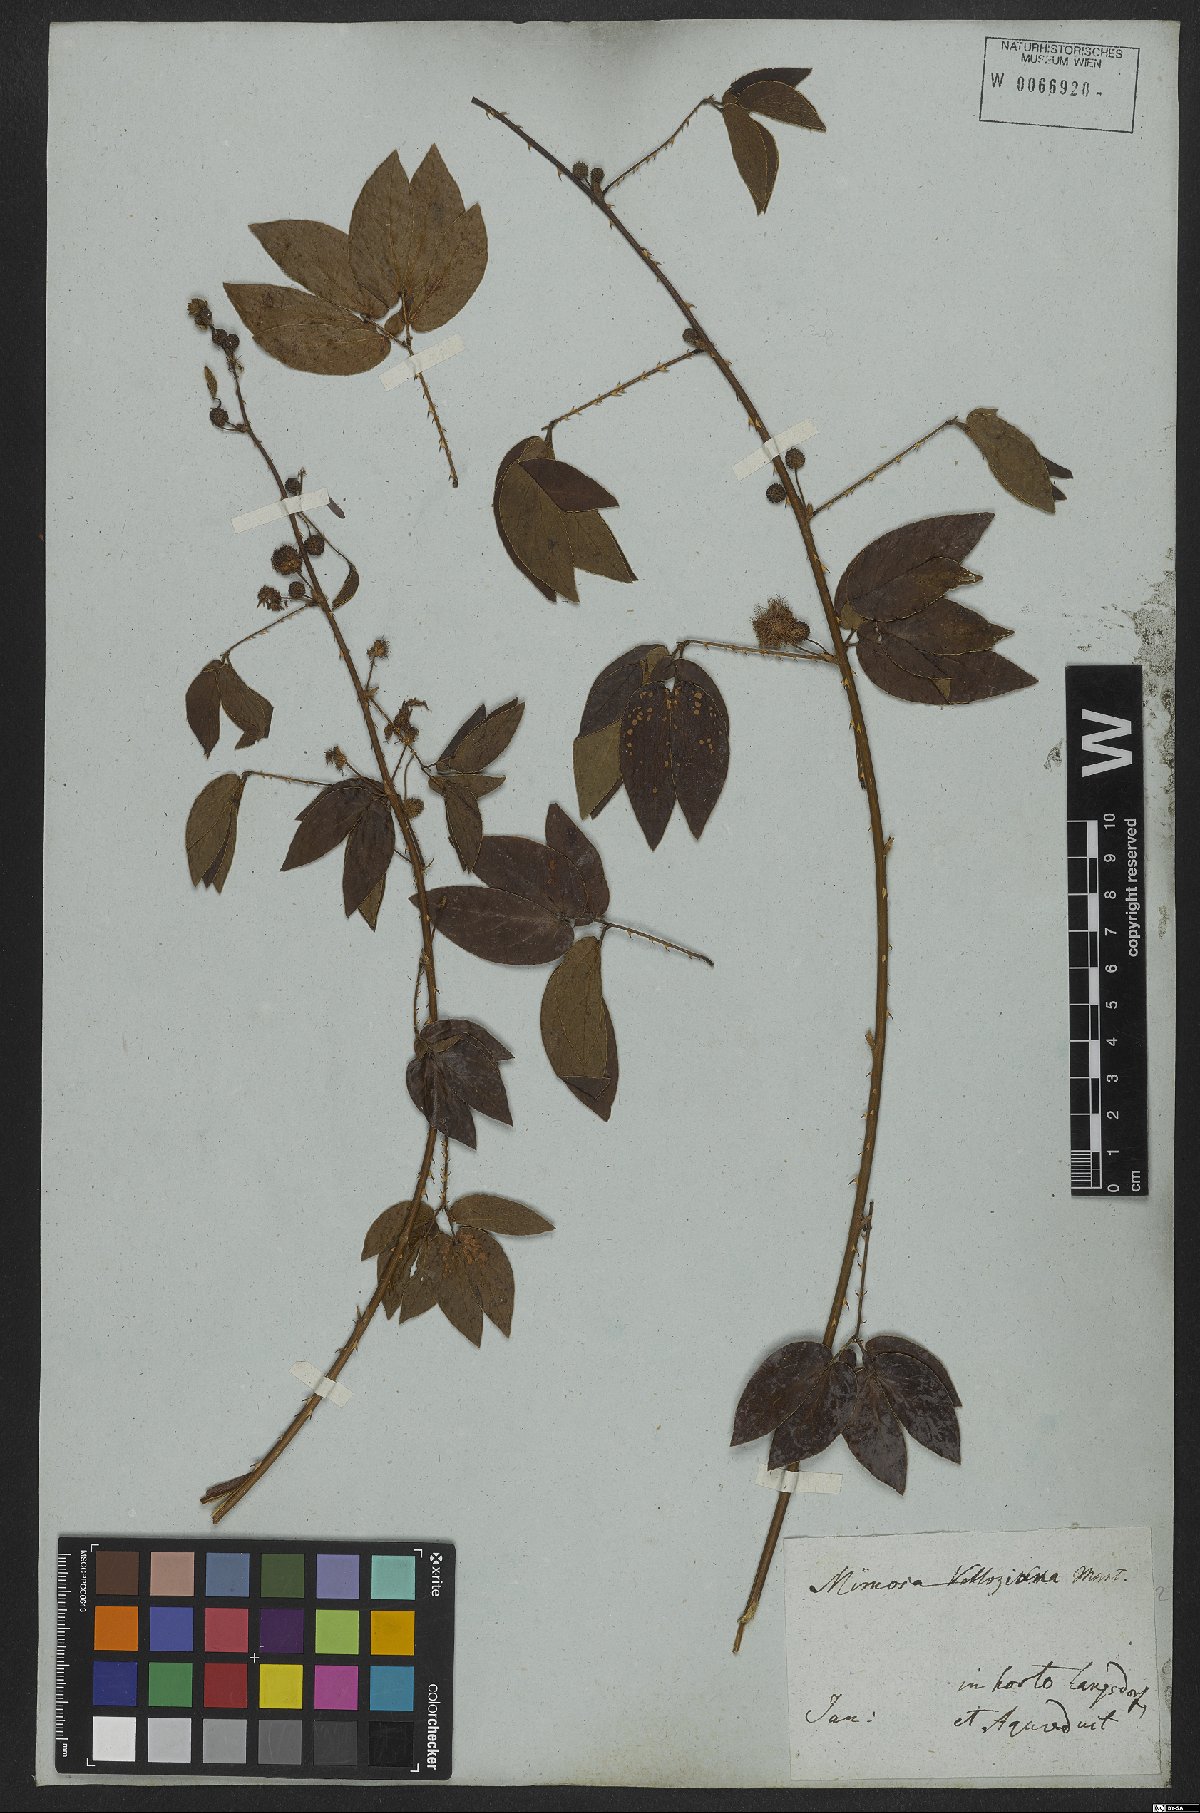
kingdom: Plantae
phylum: Tracheophyta
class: Magnoliopsida
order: Fabales
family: Fabaceae
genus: Mimosa
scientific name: Mimosa velloziana
